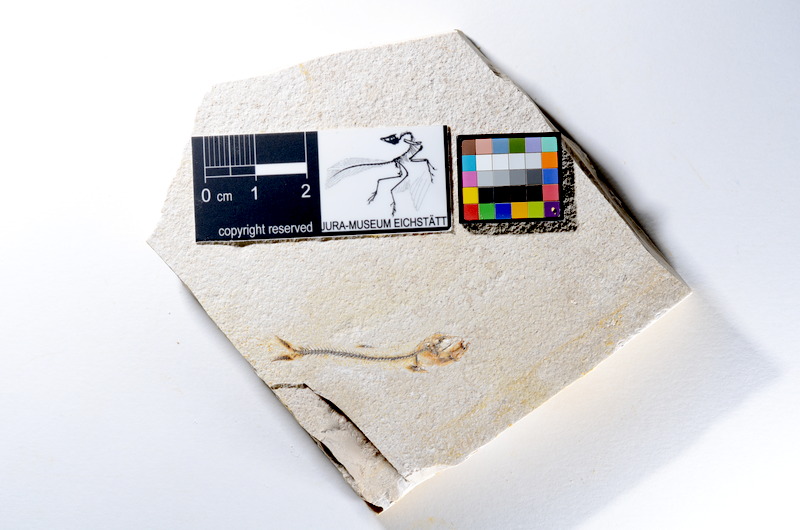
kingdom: Animalia
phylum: Chordata
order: Salmoniformes
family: Orthogonikleithridae
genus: Orthogonikleithrus
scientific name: Orthogonikleithrus hoelli
